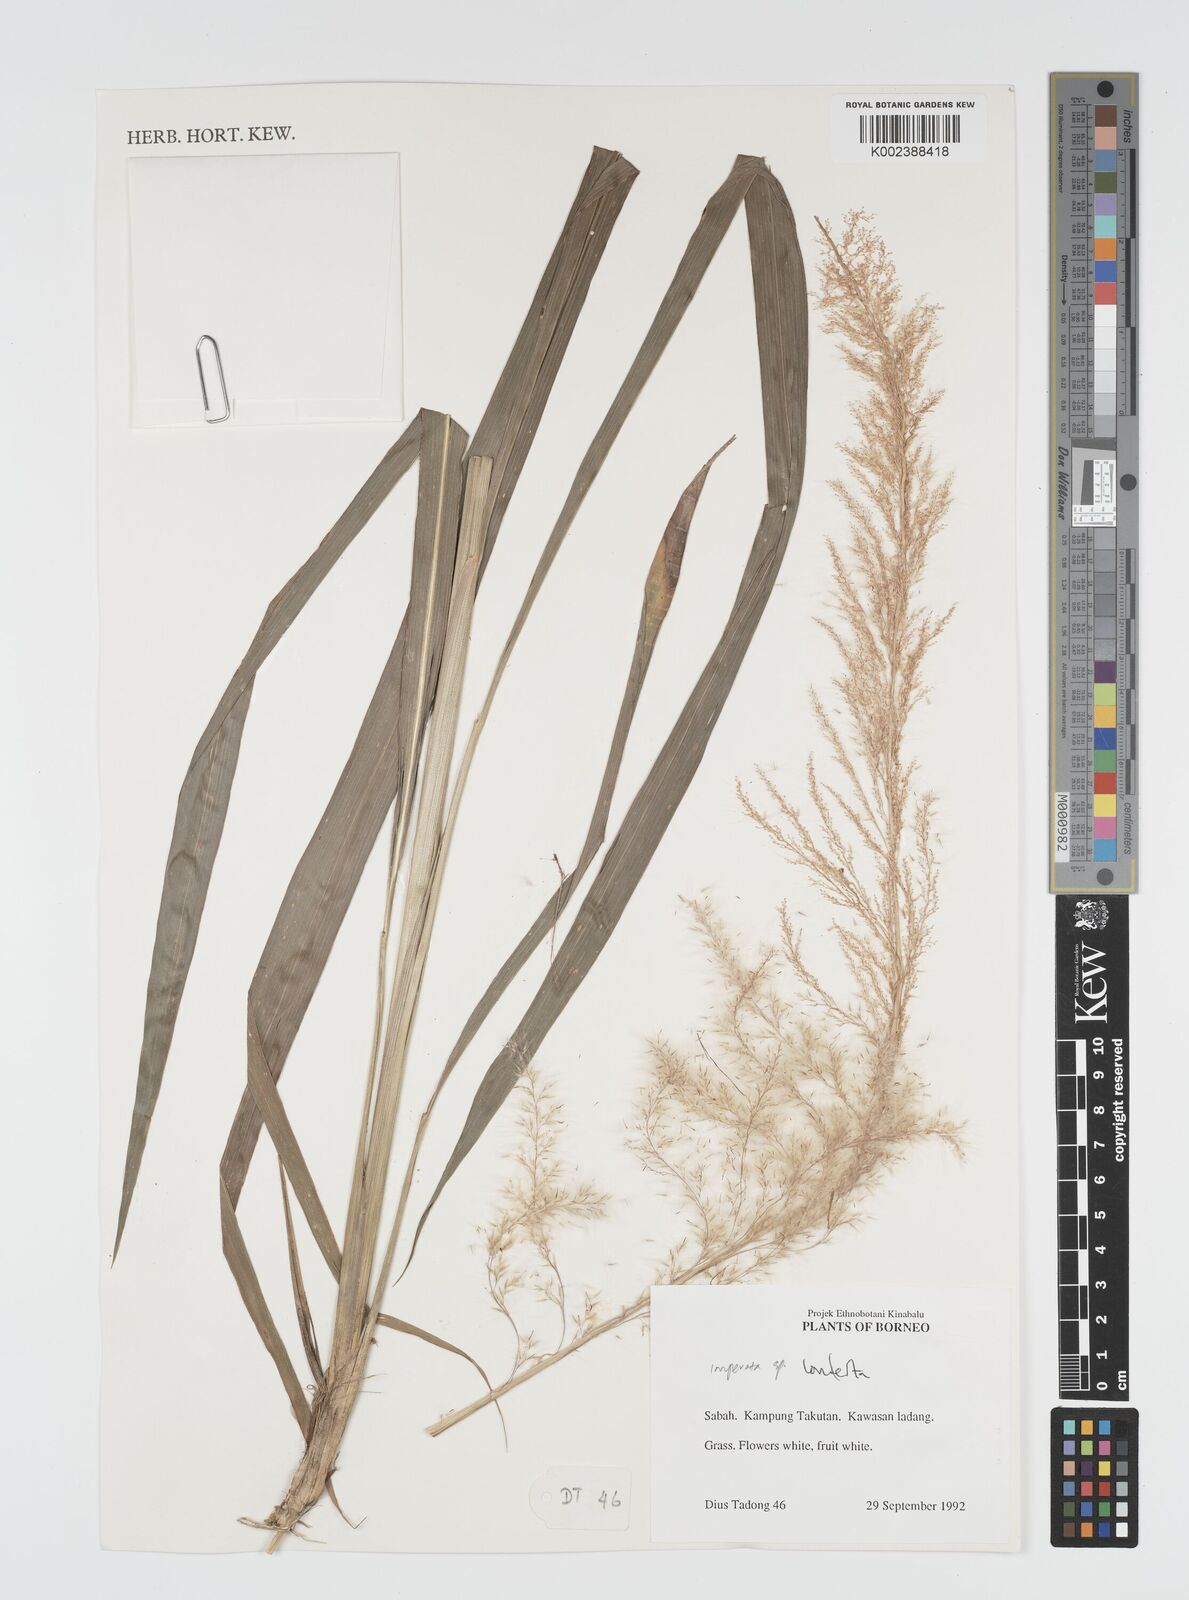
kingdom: Plantae
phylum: Tracheophyta
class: Liliopsida
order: Poales
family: Poaceae
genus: Imperata
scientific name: Imperata conferta
